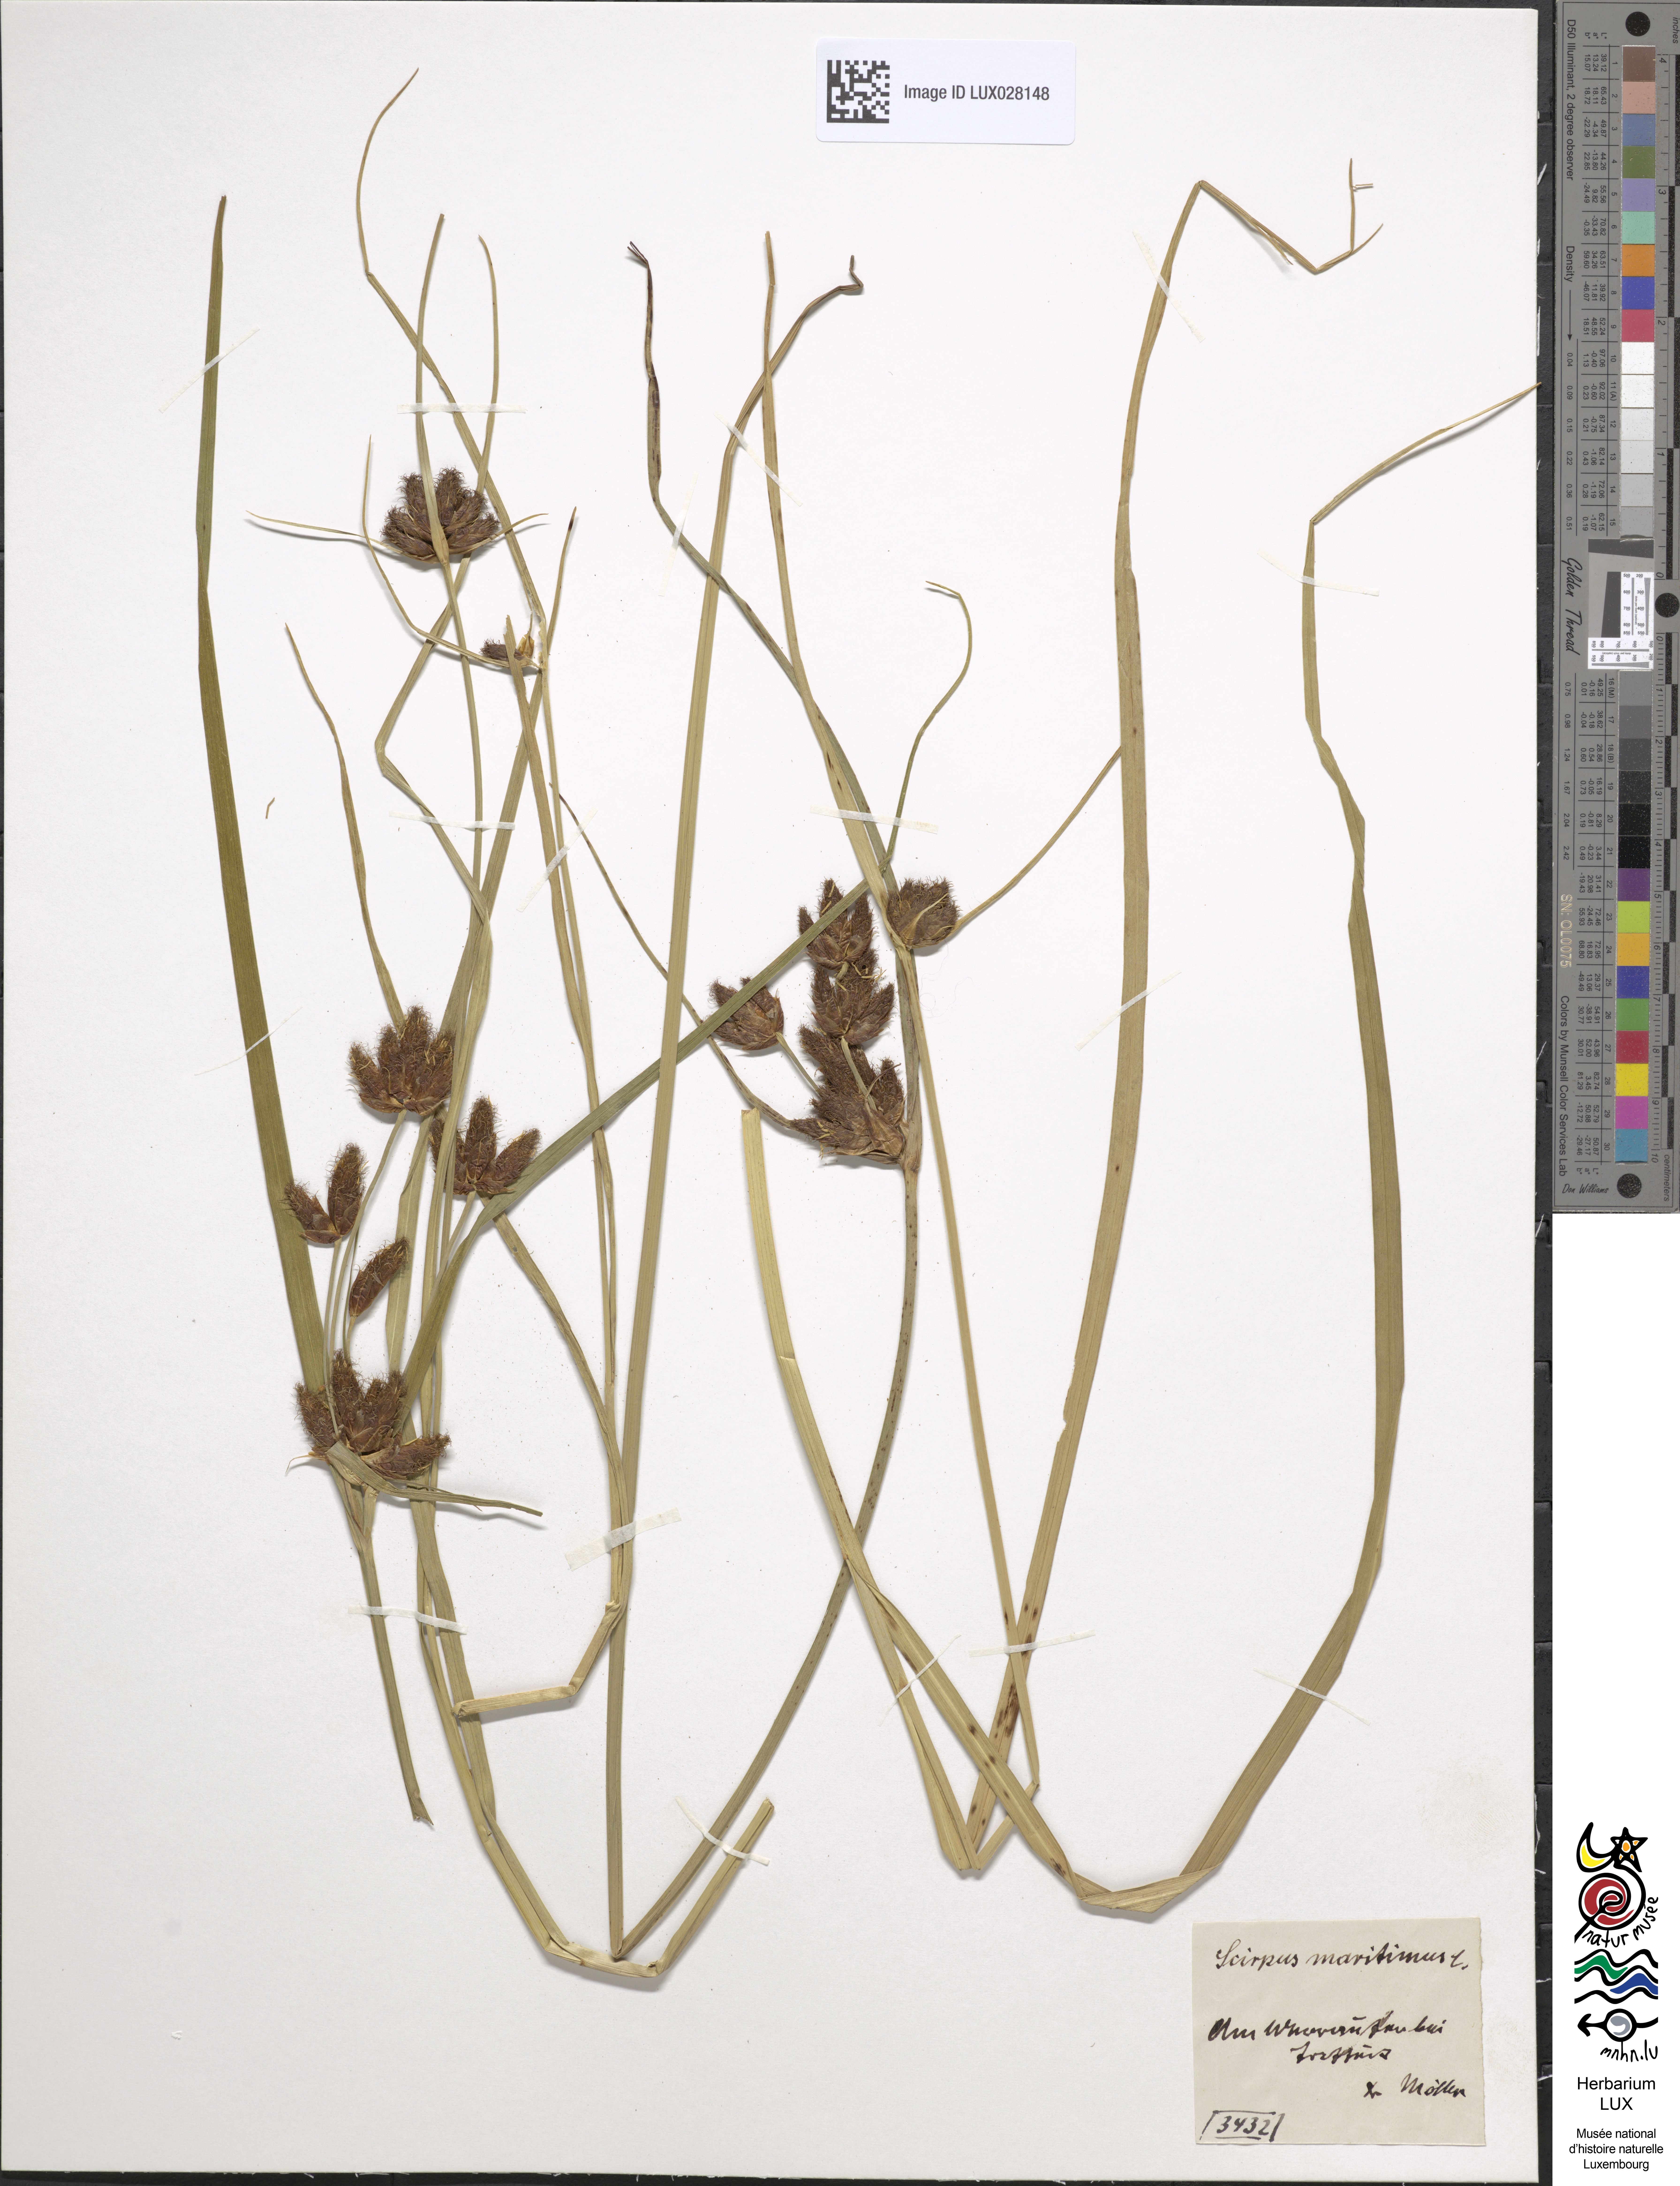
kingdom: Plantae
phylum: Tracheophyta
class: Liliopsida
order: Poales
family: Cyperaceae
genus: Bolboschoenus
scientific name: Bolboschoenus maritimus
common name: Sea club-rush
